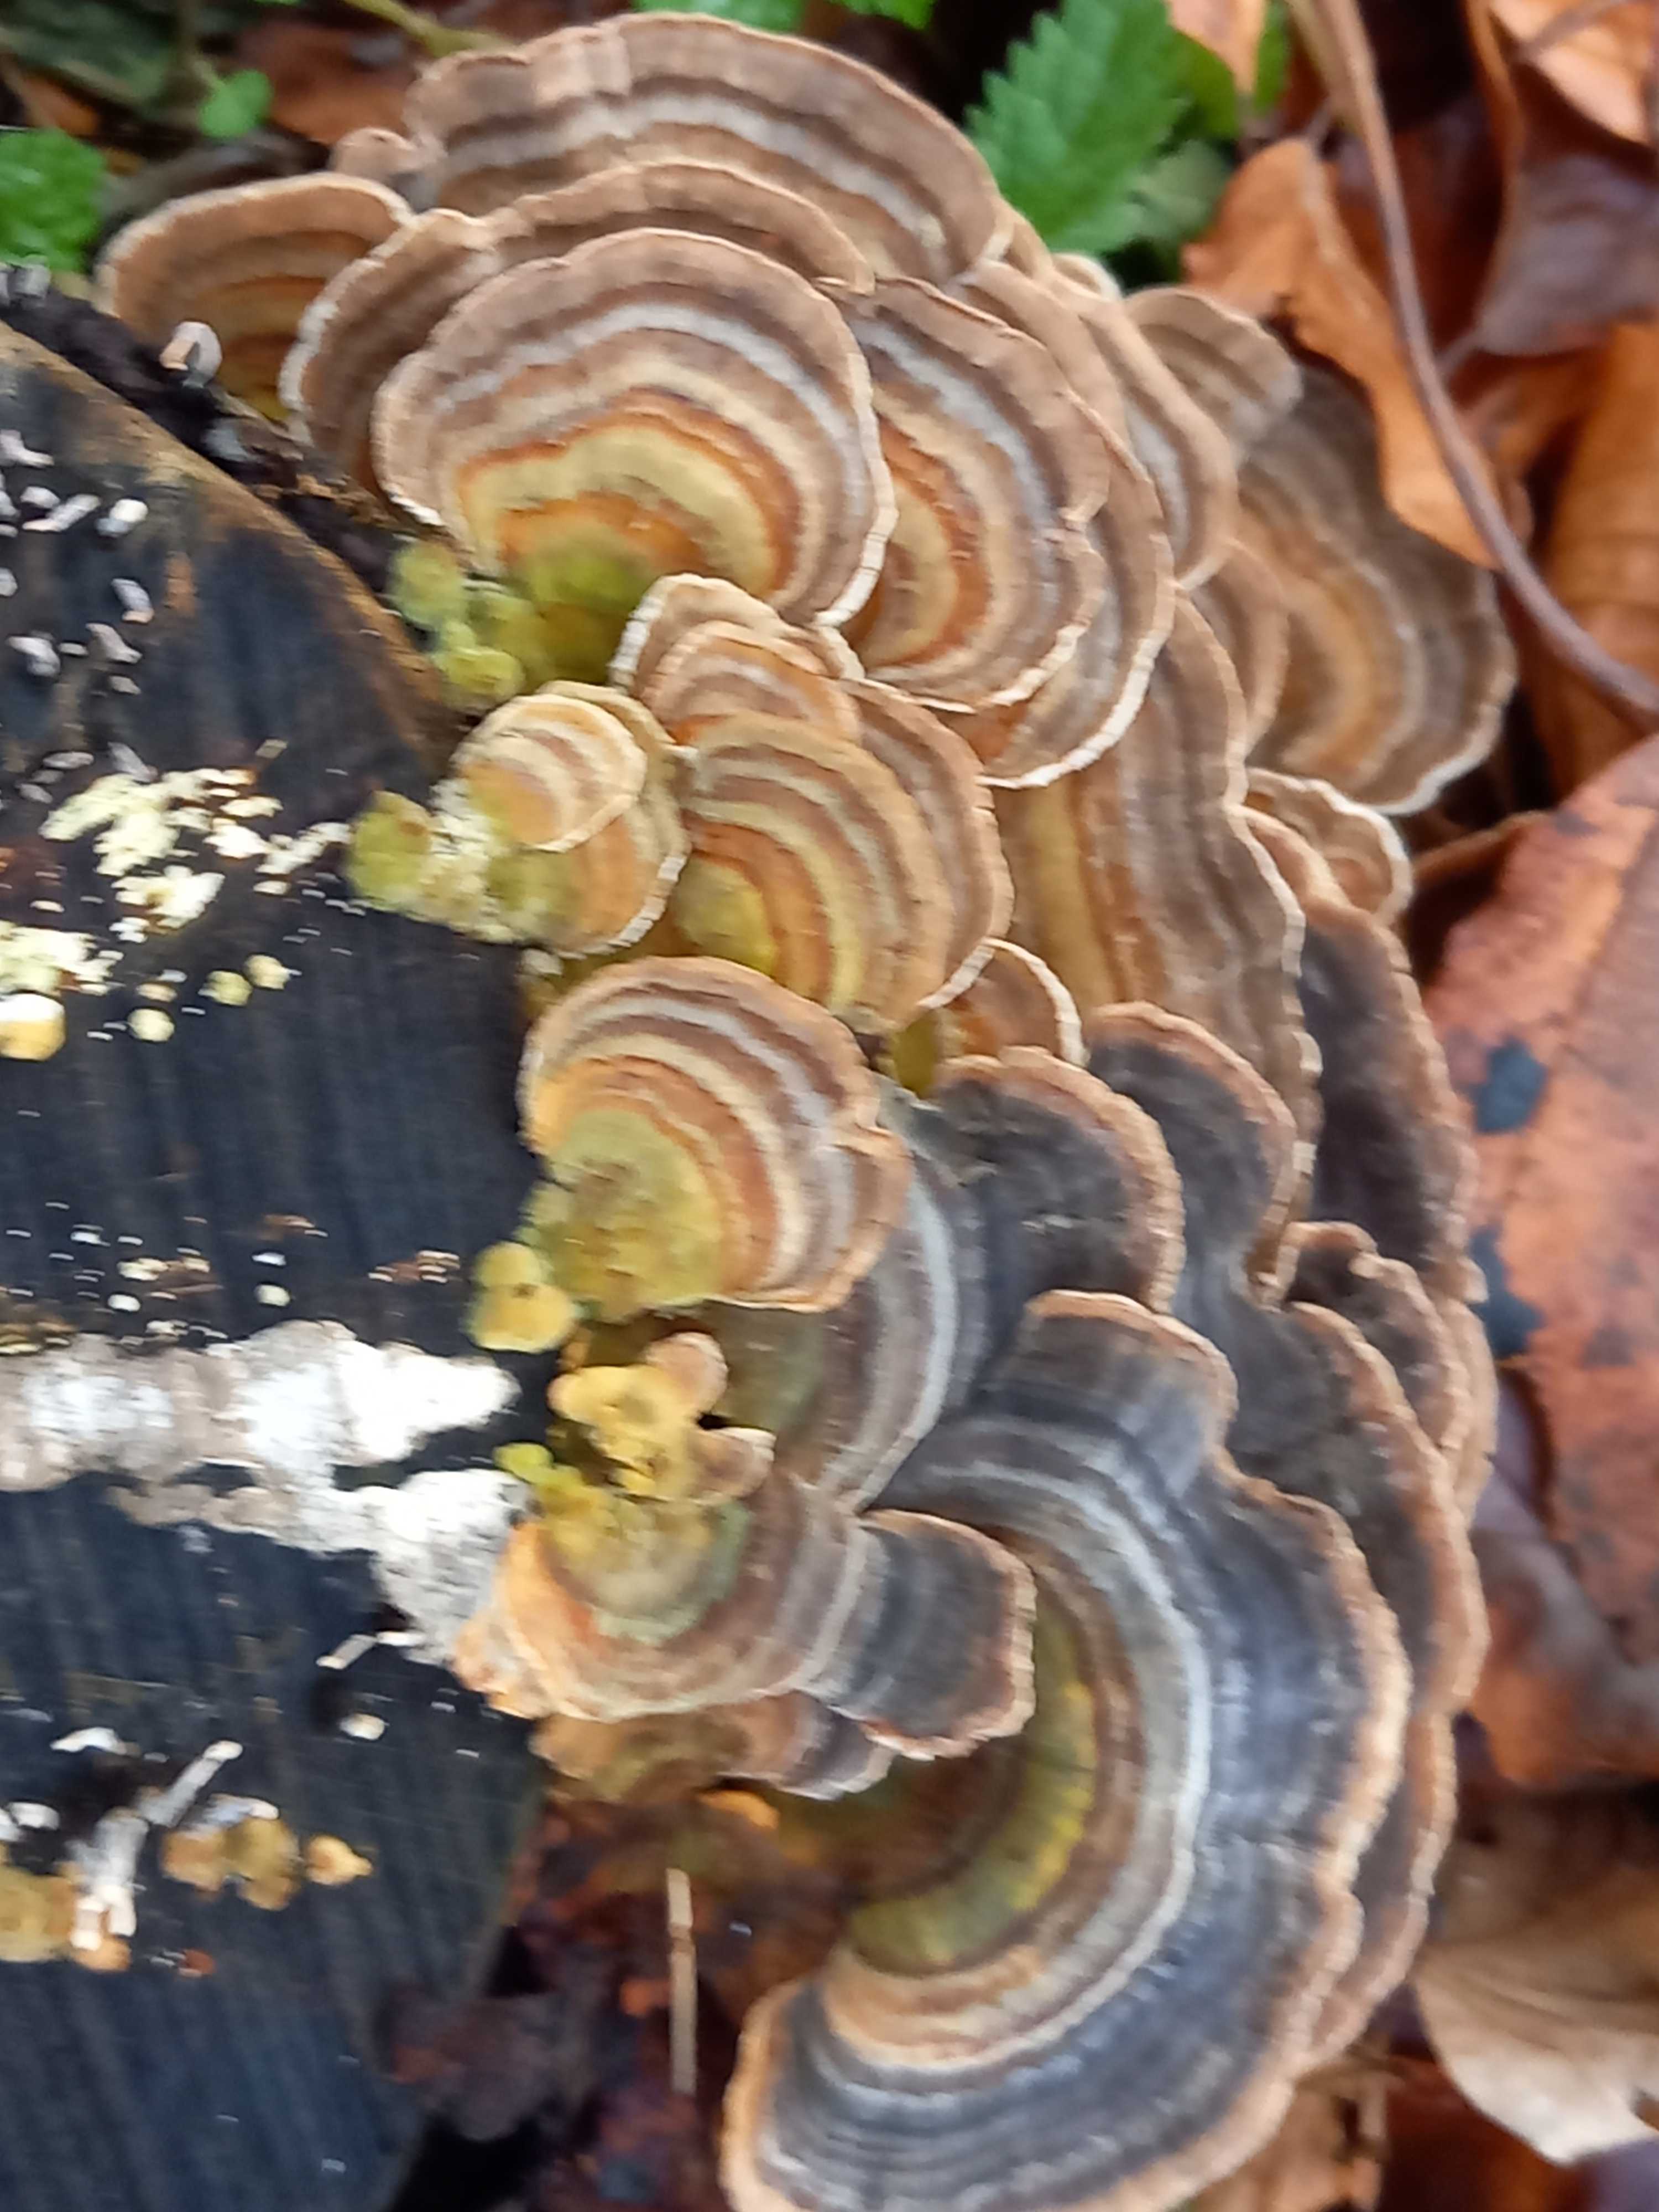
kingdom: Fungi
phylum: Basidiomycota
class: Agaricomycetes
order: Polyporales
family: Polyporaceae
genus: Trametes
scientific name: Trametes versicolor
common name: broget læderporesvamp
